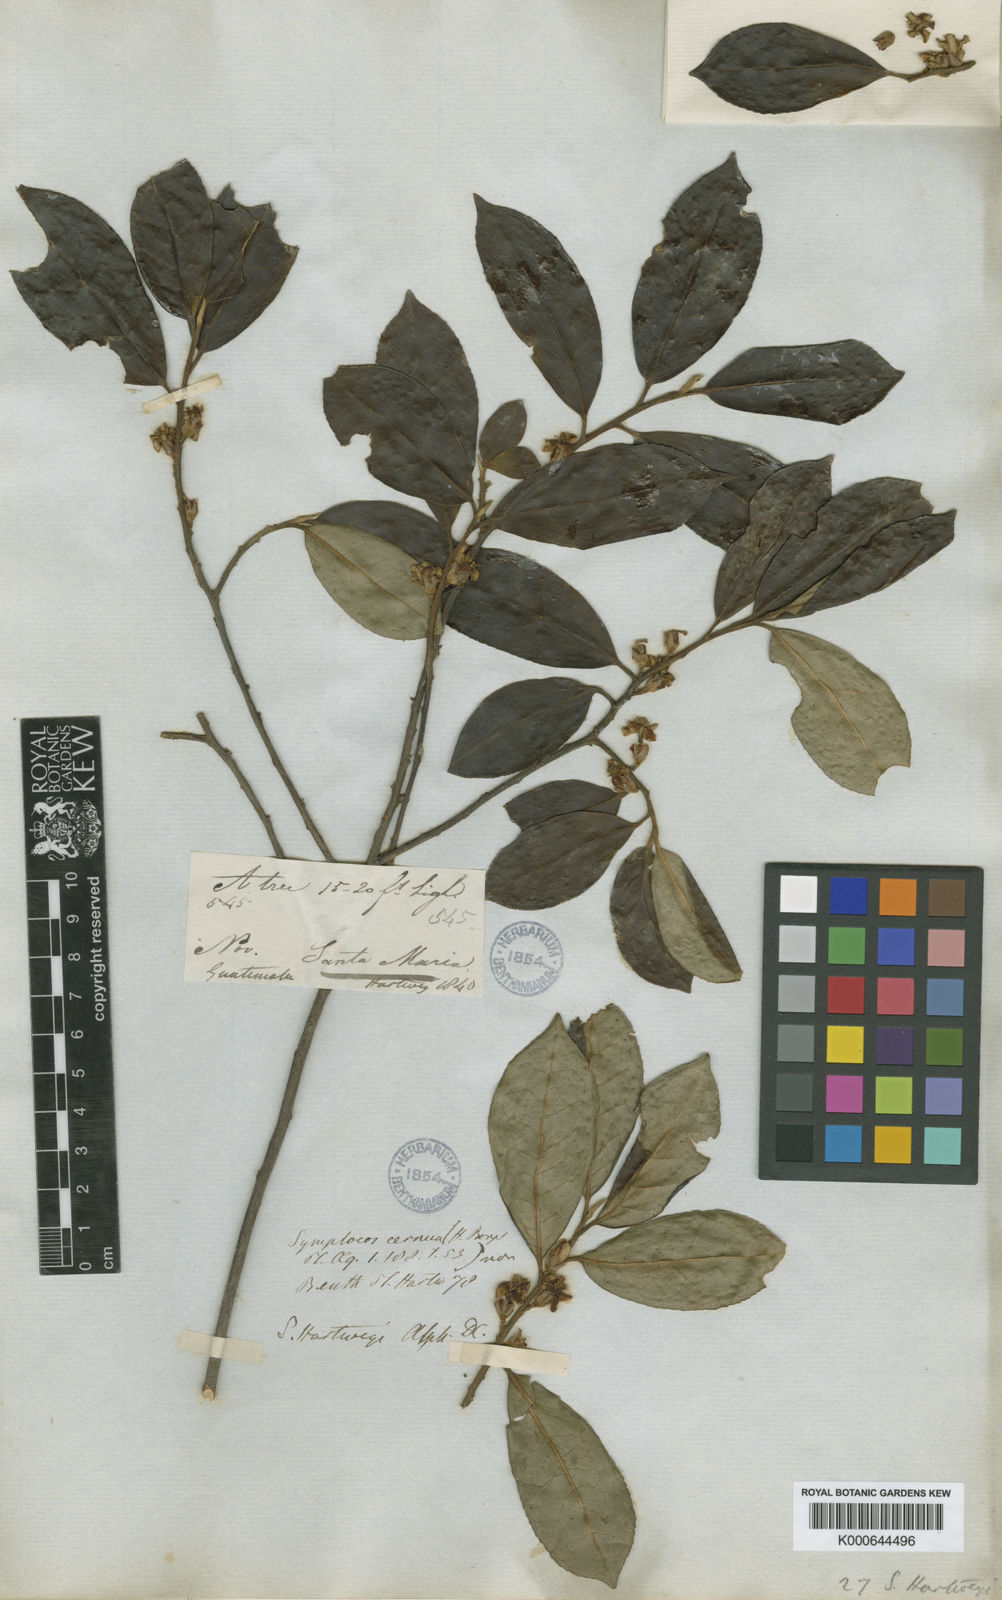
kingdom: Plantae
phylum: Tracheophyta
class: Magnoliopsida
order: Ericales
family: Symplocaceae
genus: Symplocos
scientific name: Symplocos hartwegii
